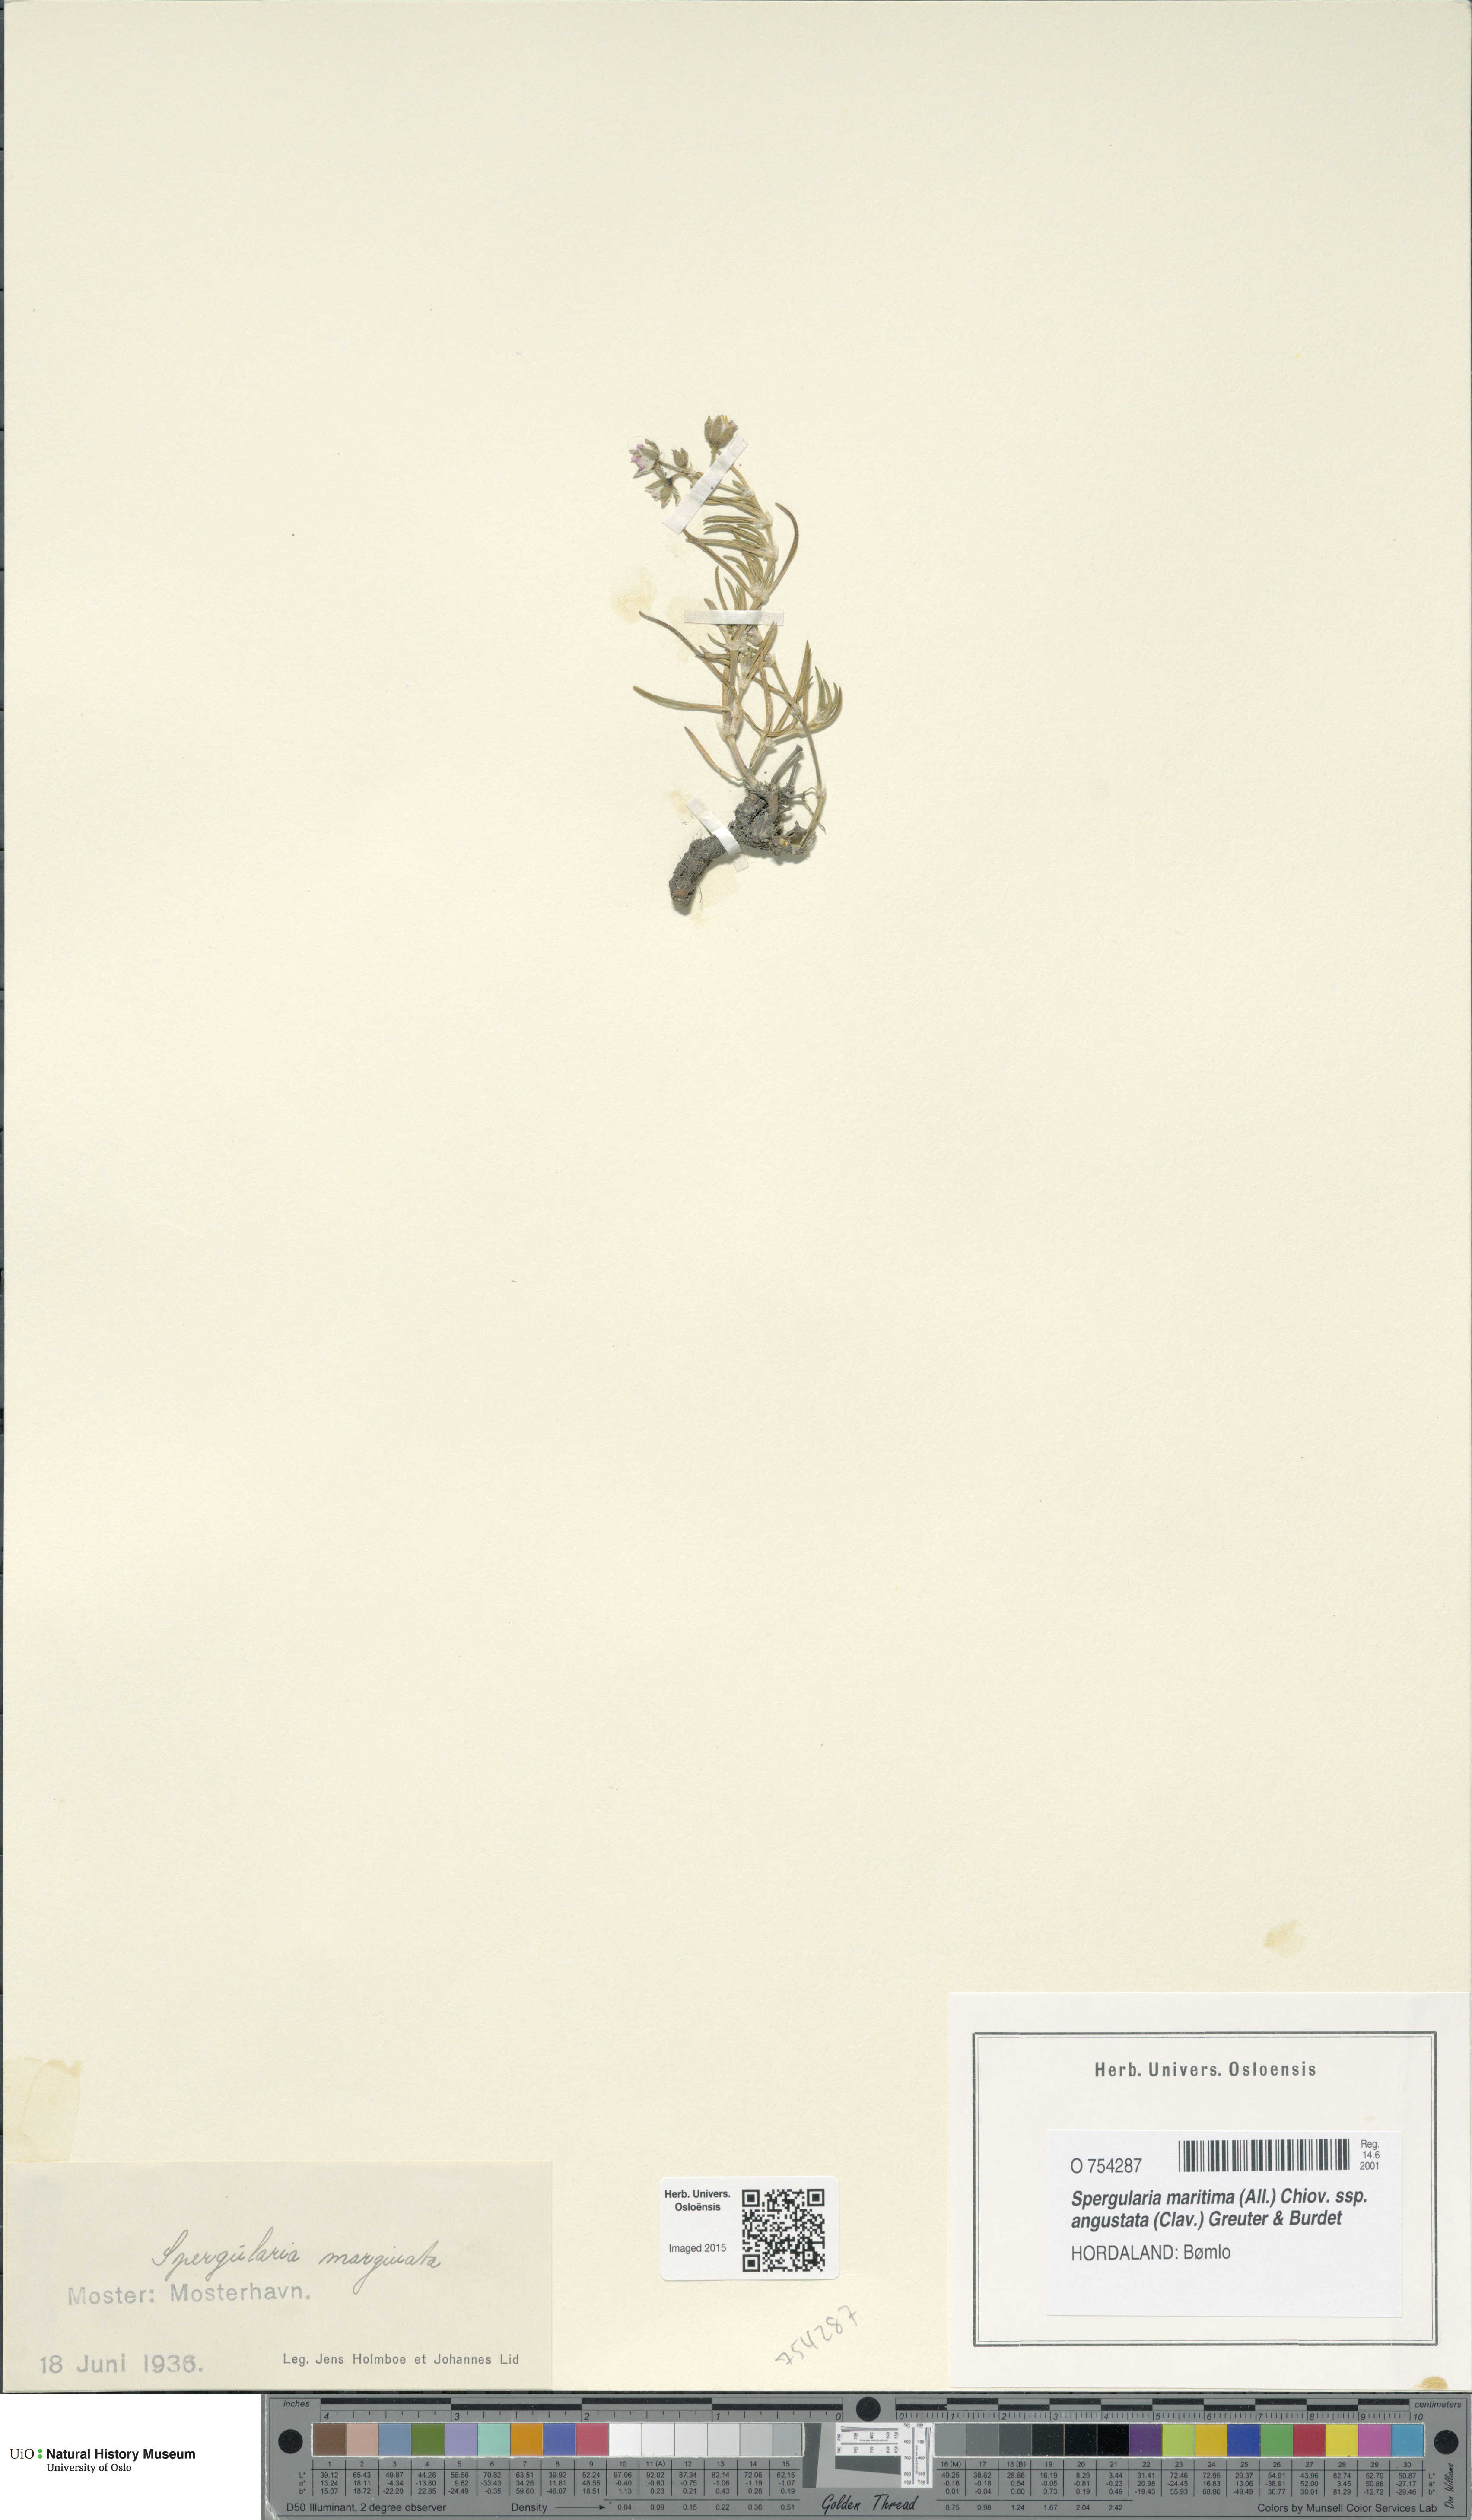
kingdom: Plantae
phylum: Tracheophyta
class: Magnoliopsida
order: Caryophyllales
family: Caryophyllaceae
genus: Spergularia
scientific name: Spergularia media
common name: Greater sea-spurrey
